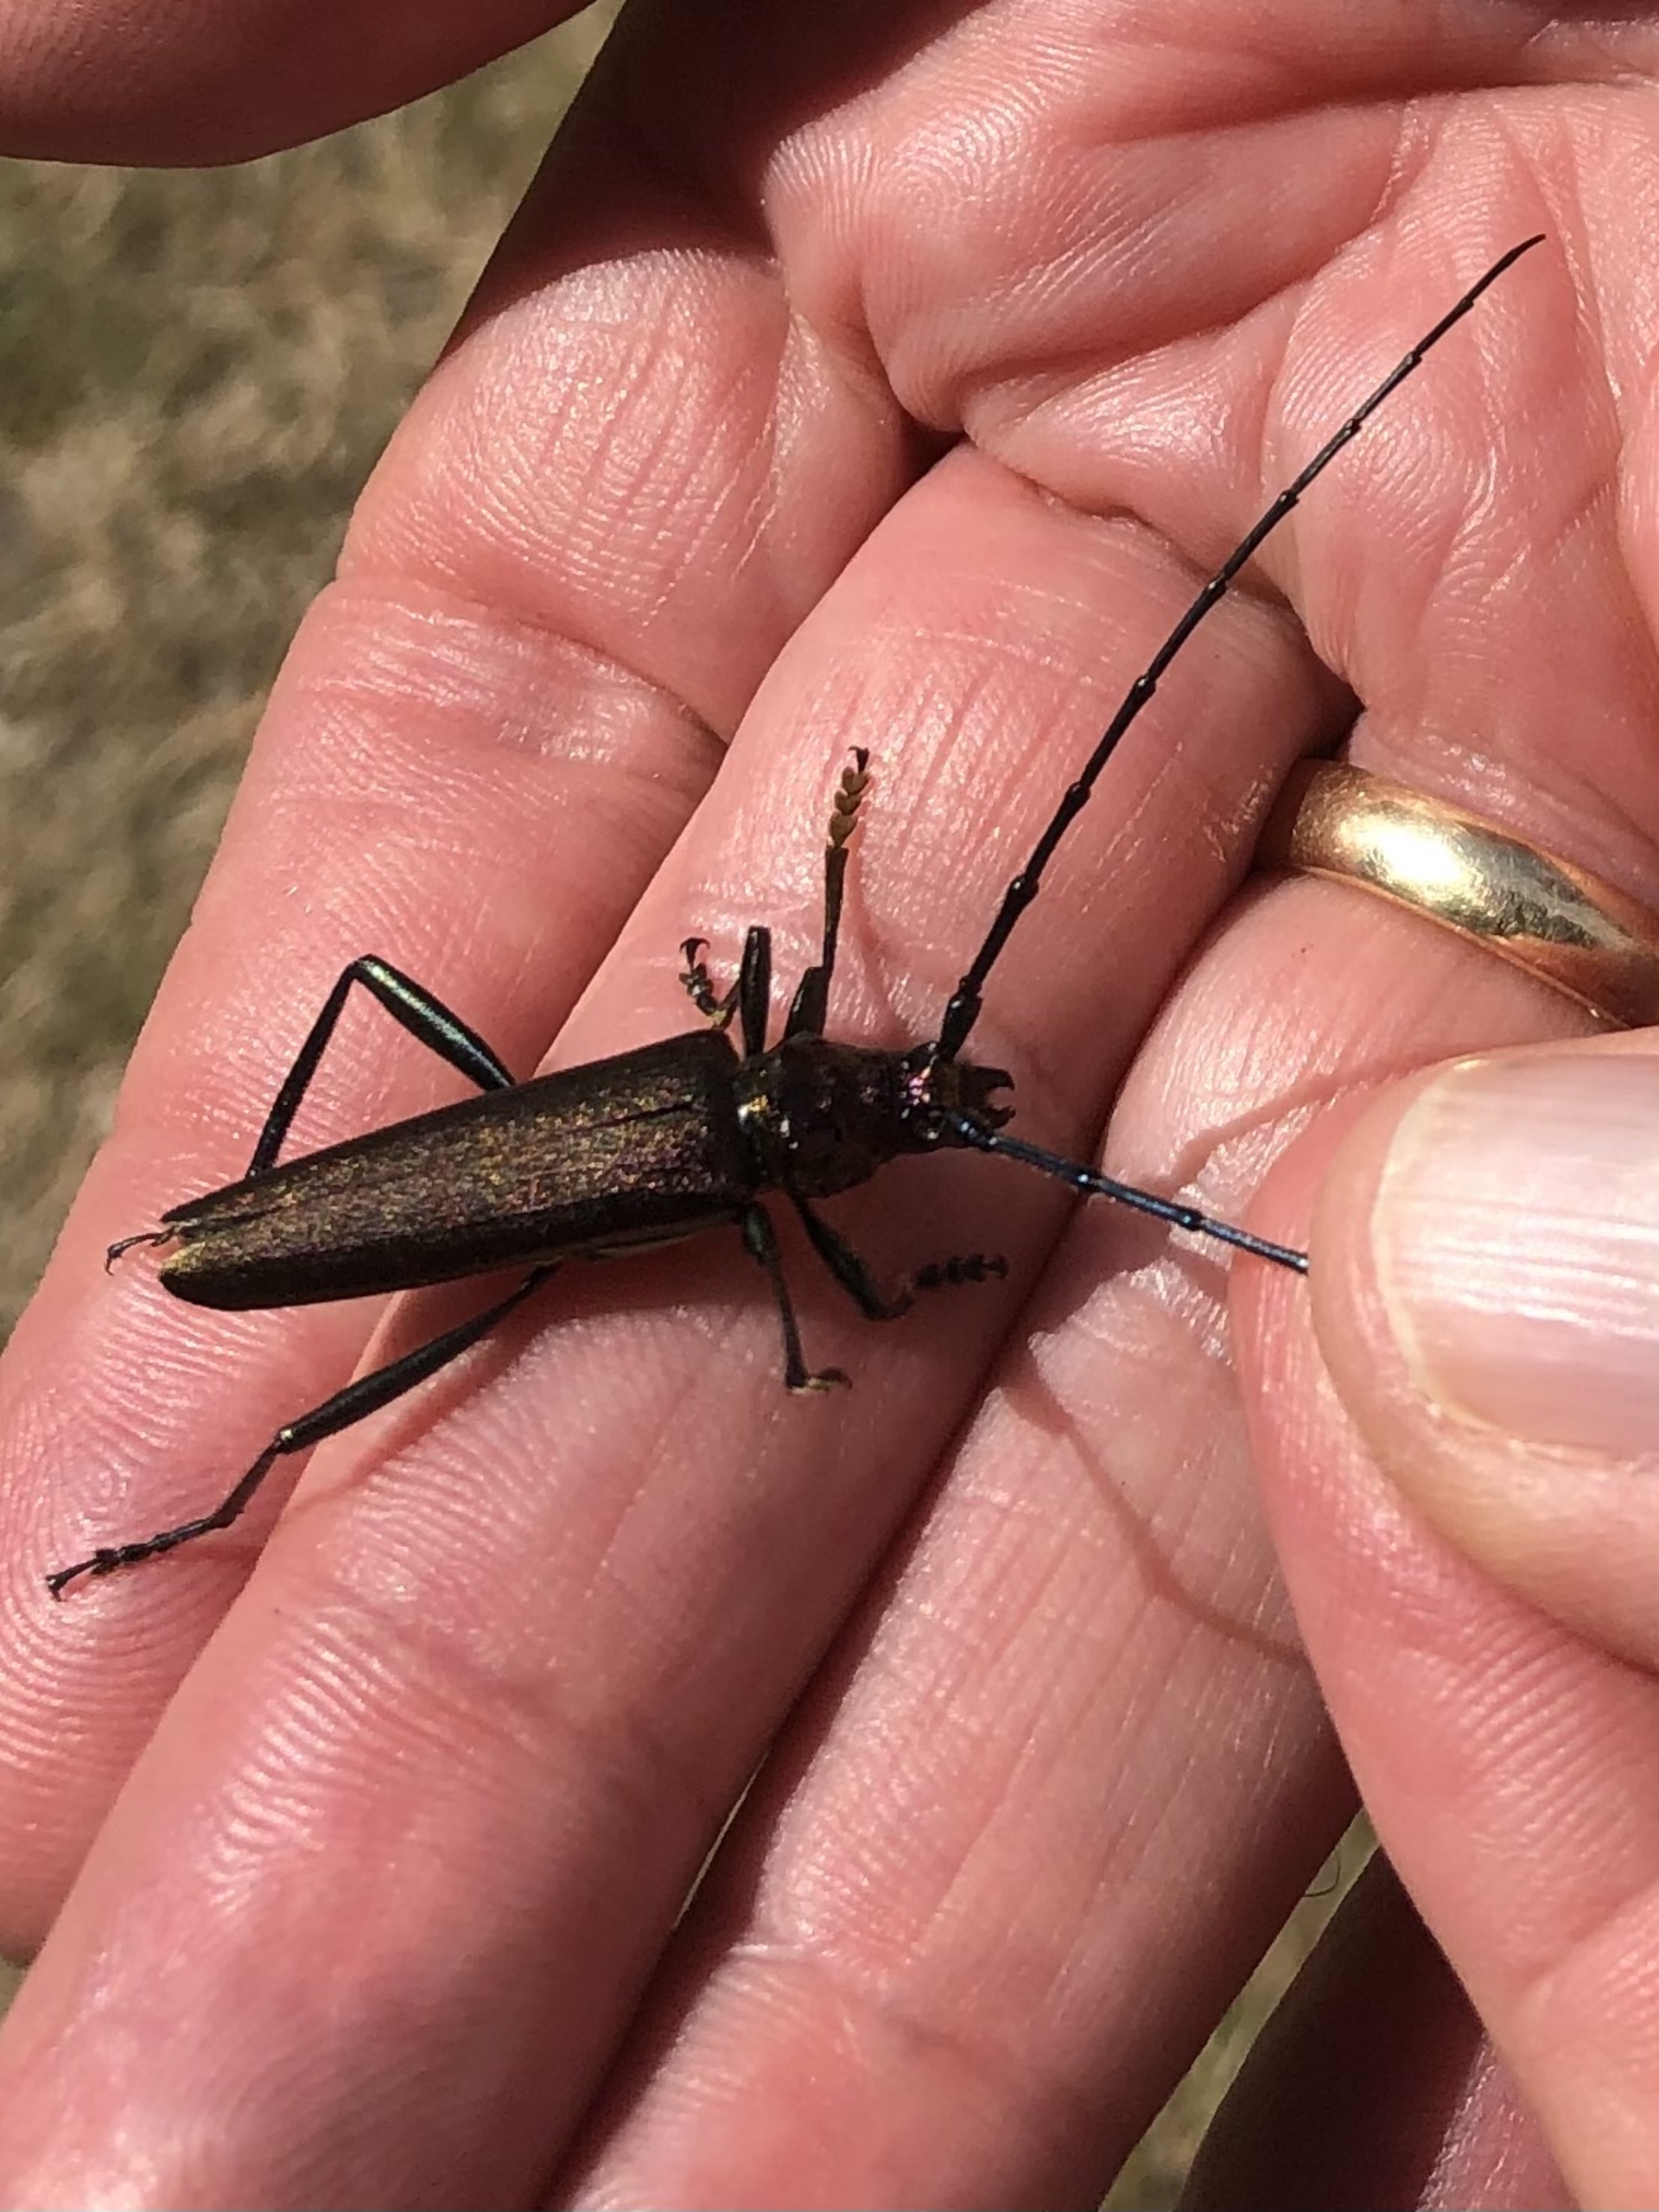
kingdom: Animalia
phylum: Arthropoda
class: Insecta
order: Coleoptera
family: Cerambycidae
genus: Aromia
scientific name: Aromia moschata
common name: Moskusbuk
